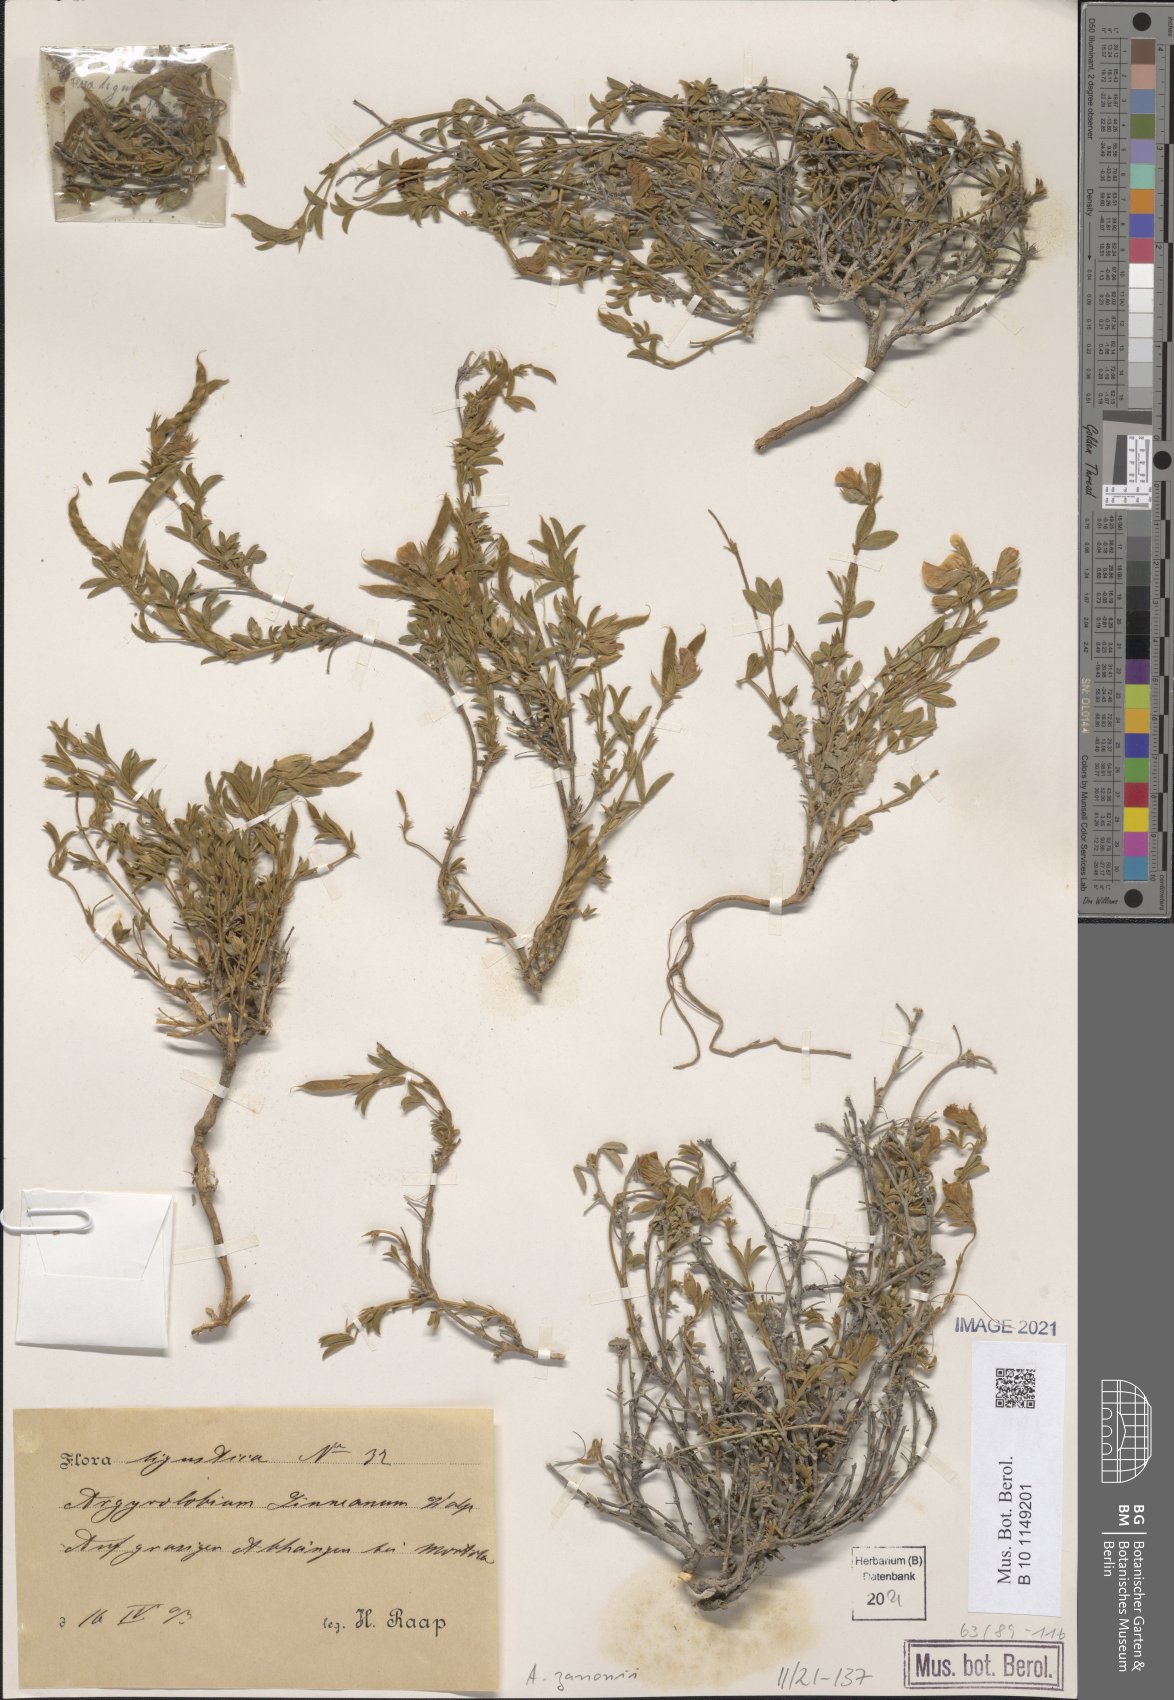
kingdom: Plantae
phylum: Tracheophyta
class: Magnoliopsida
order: Fabales
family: Fabaceae
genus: Argyrolobium
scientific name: Argyrolobium zanonii
